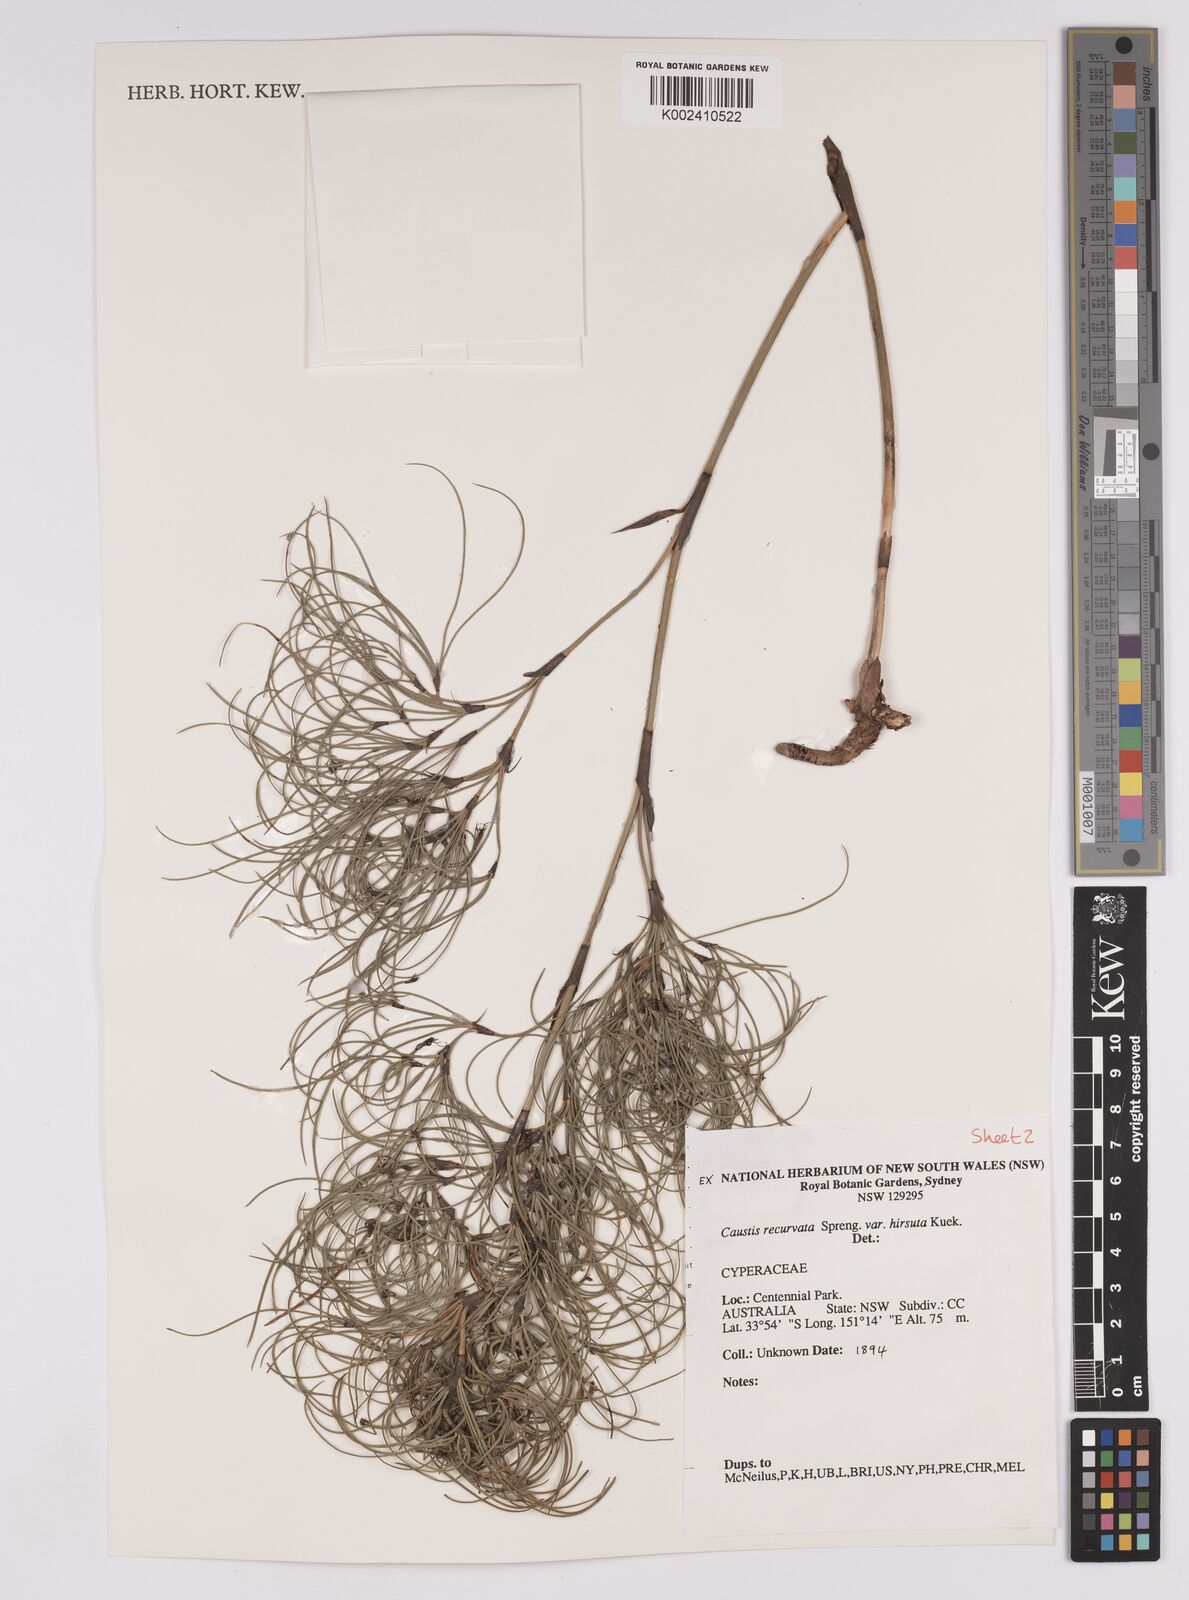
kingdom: Plantae
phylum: Tracheophyta
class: Liliopsida
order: Poales
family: Cyperaceae
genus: Caustis
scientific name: Caustis recurvata
